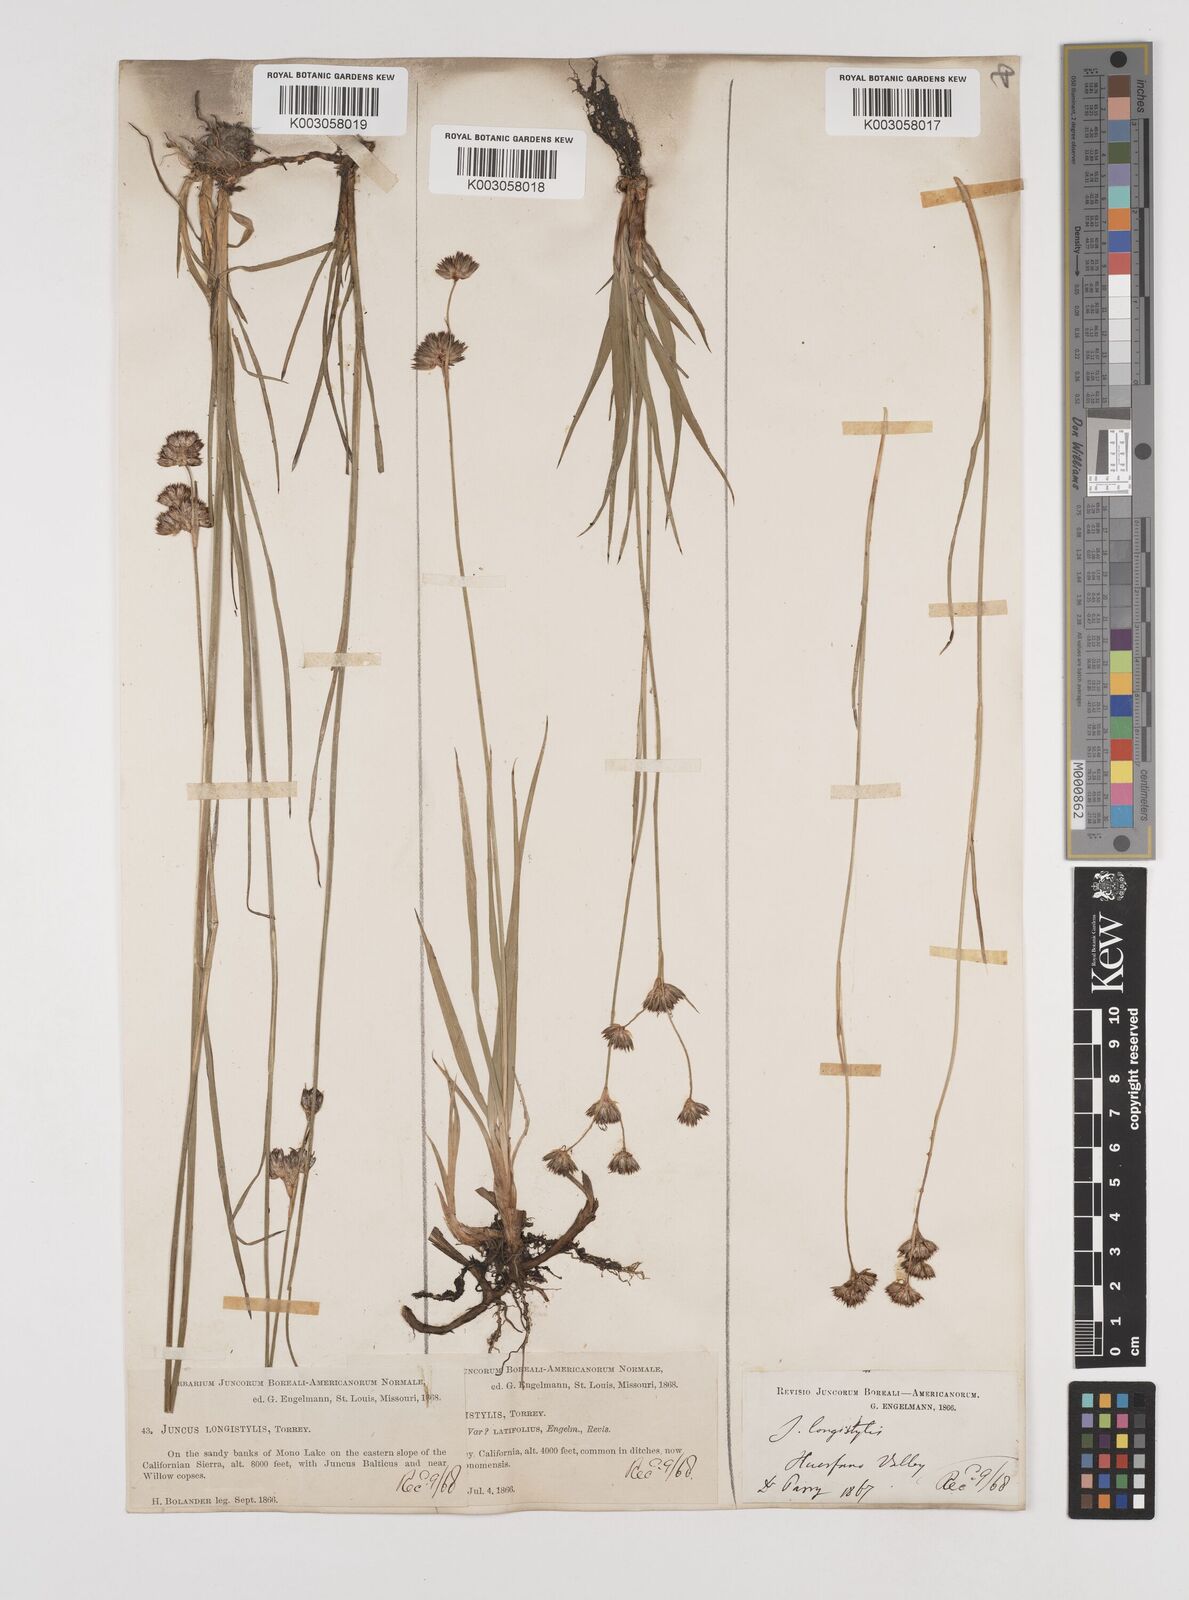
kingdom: Plantae
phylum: Tracheophyta
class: Liliopsida
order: Poales
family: Juncaceae
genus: Juncus
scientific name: Juncus longistylis
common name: Long-style rush
